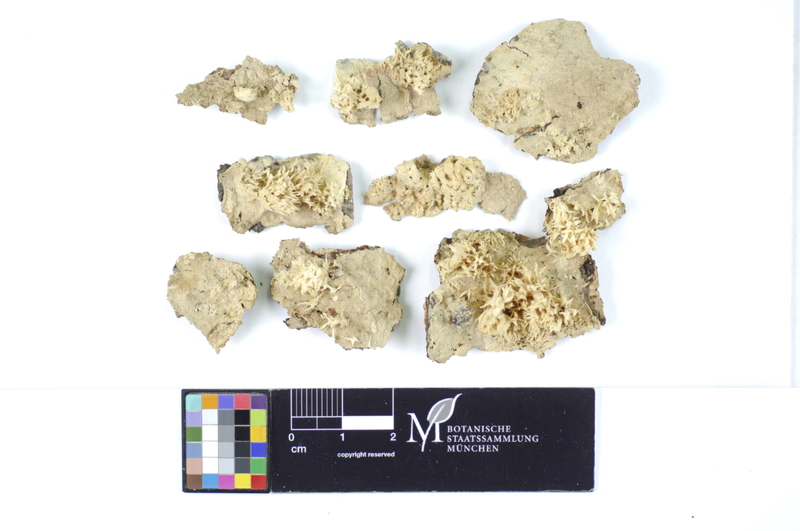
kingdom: Plantae
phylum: Tracheophyta
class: Pinopsida
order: Pinales
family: Pinaceae
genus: Pinus
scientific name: Pinus
